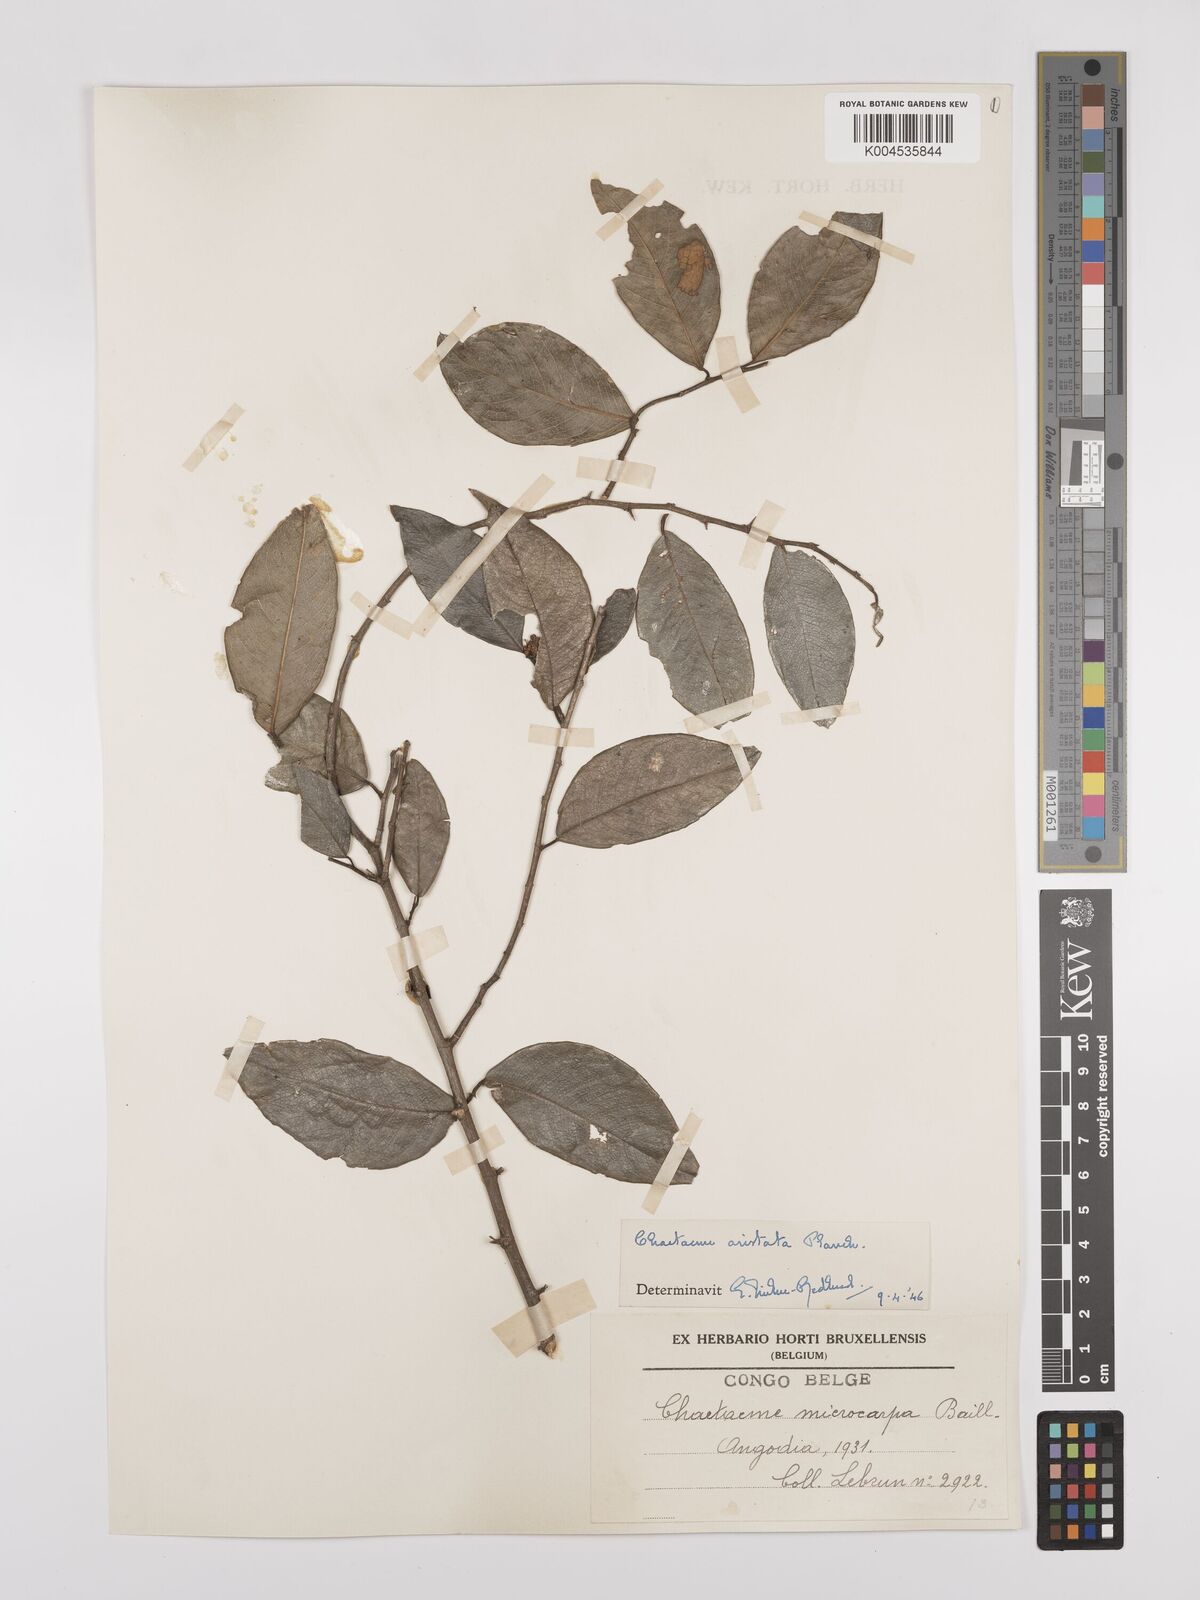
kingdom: Plantae
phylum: Tracheophyta
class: Magnoliopsida
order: Rosales
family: Cannabaceae
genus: Chaetachme
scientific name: Chaetachme aristata
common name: Thorny elm
